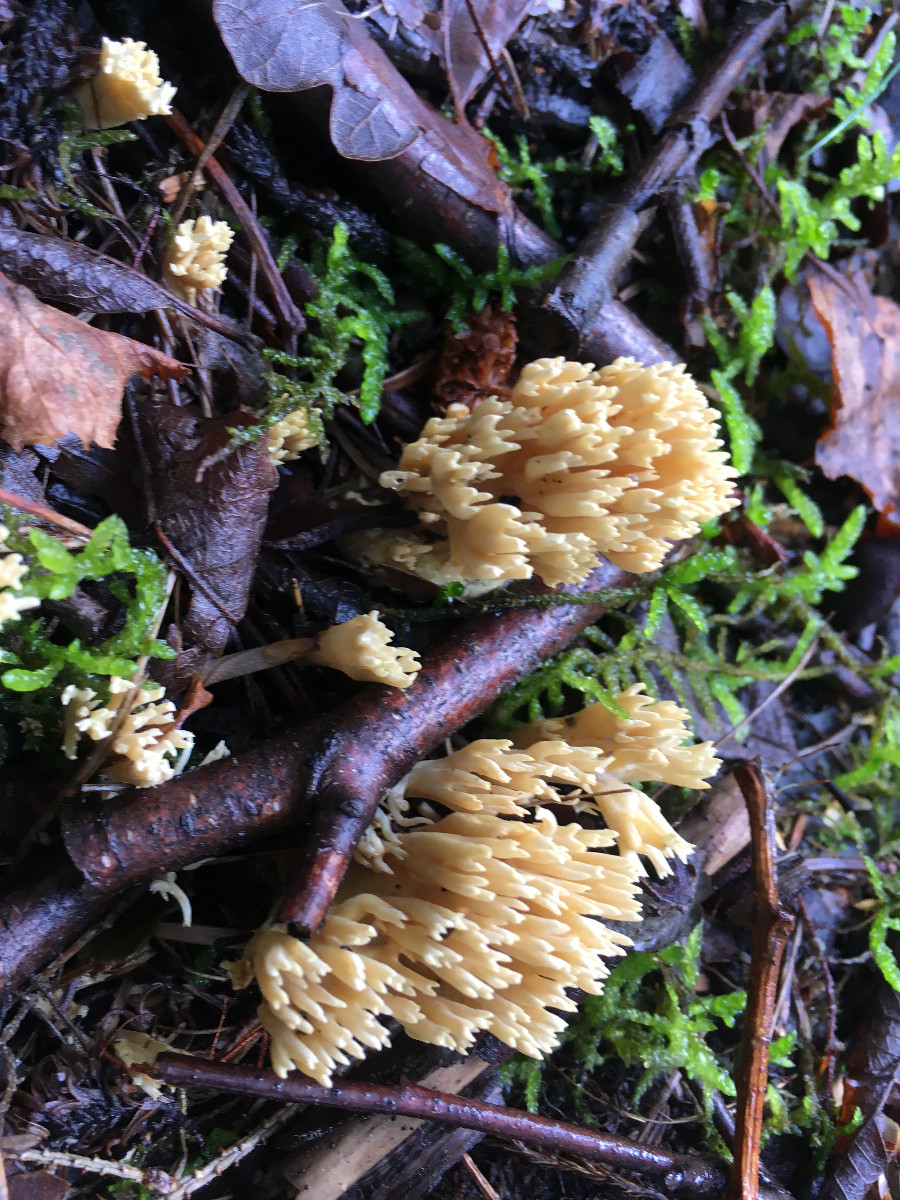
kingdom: Fungi
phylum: Basidiomycota
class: Agaricomycetes
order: Gomphales
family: Gomphaceae
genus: Ramaria
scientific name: Ramaria stricta
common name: rank koralsvamp
